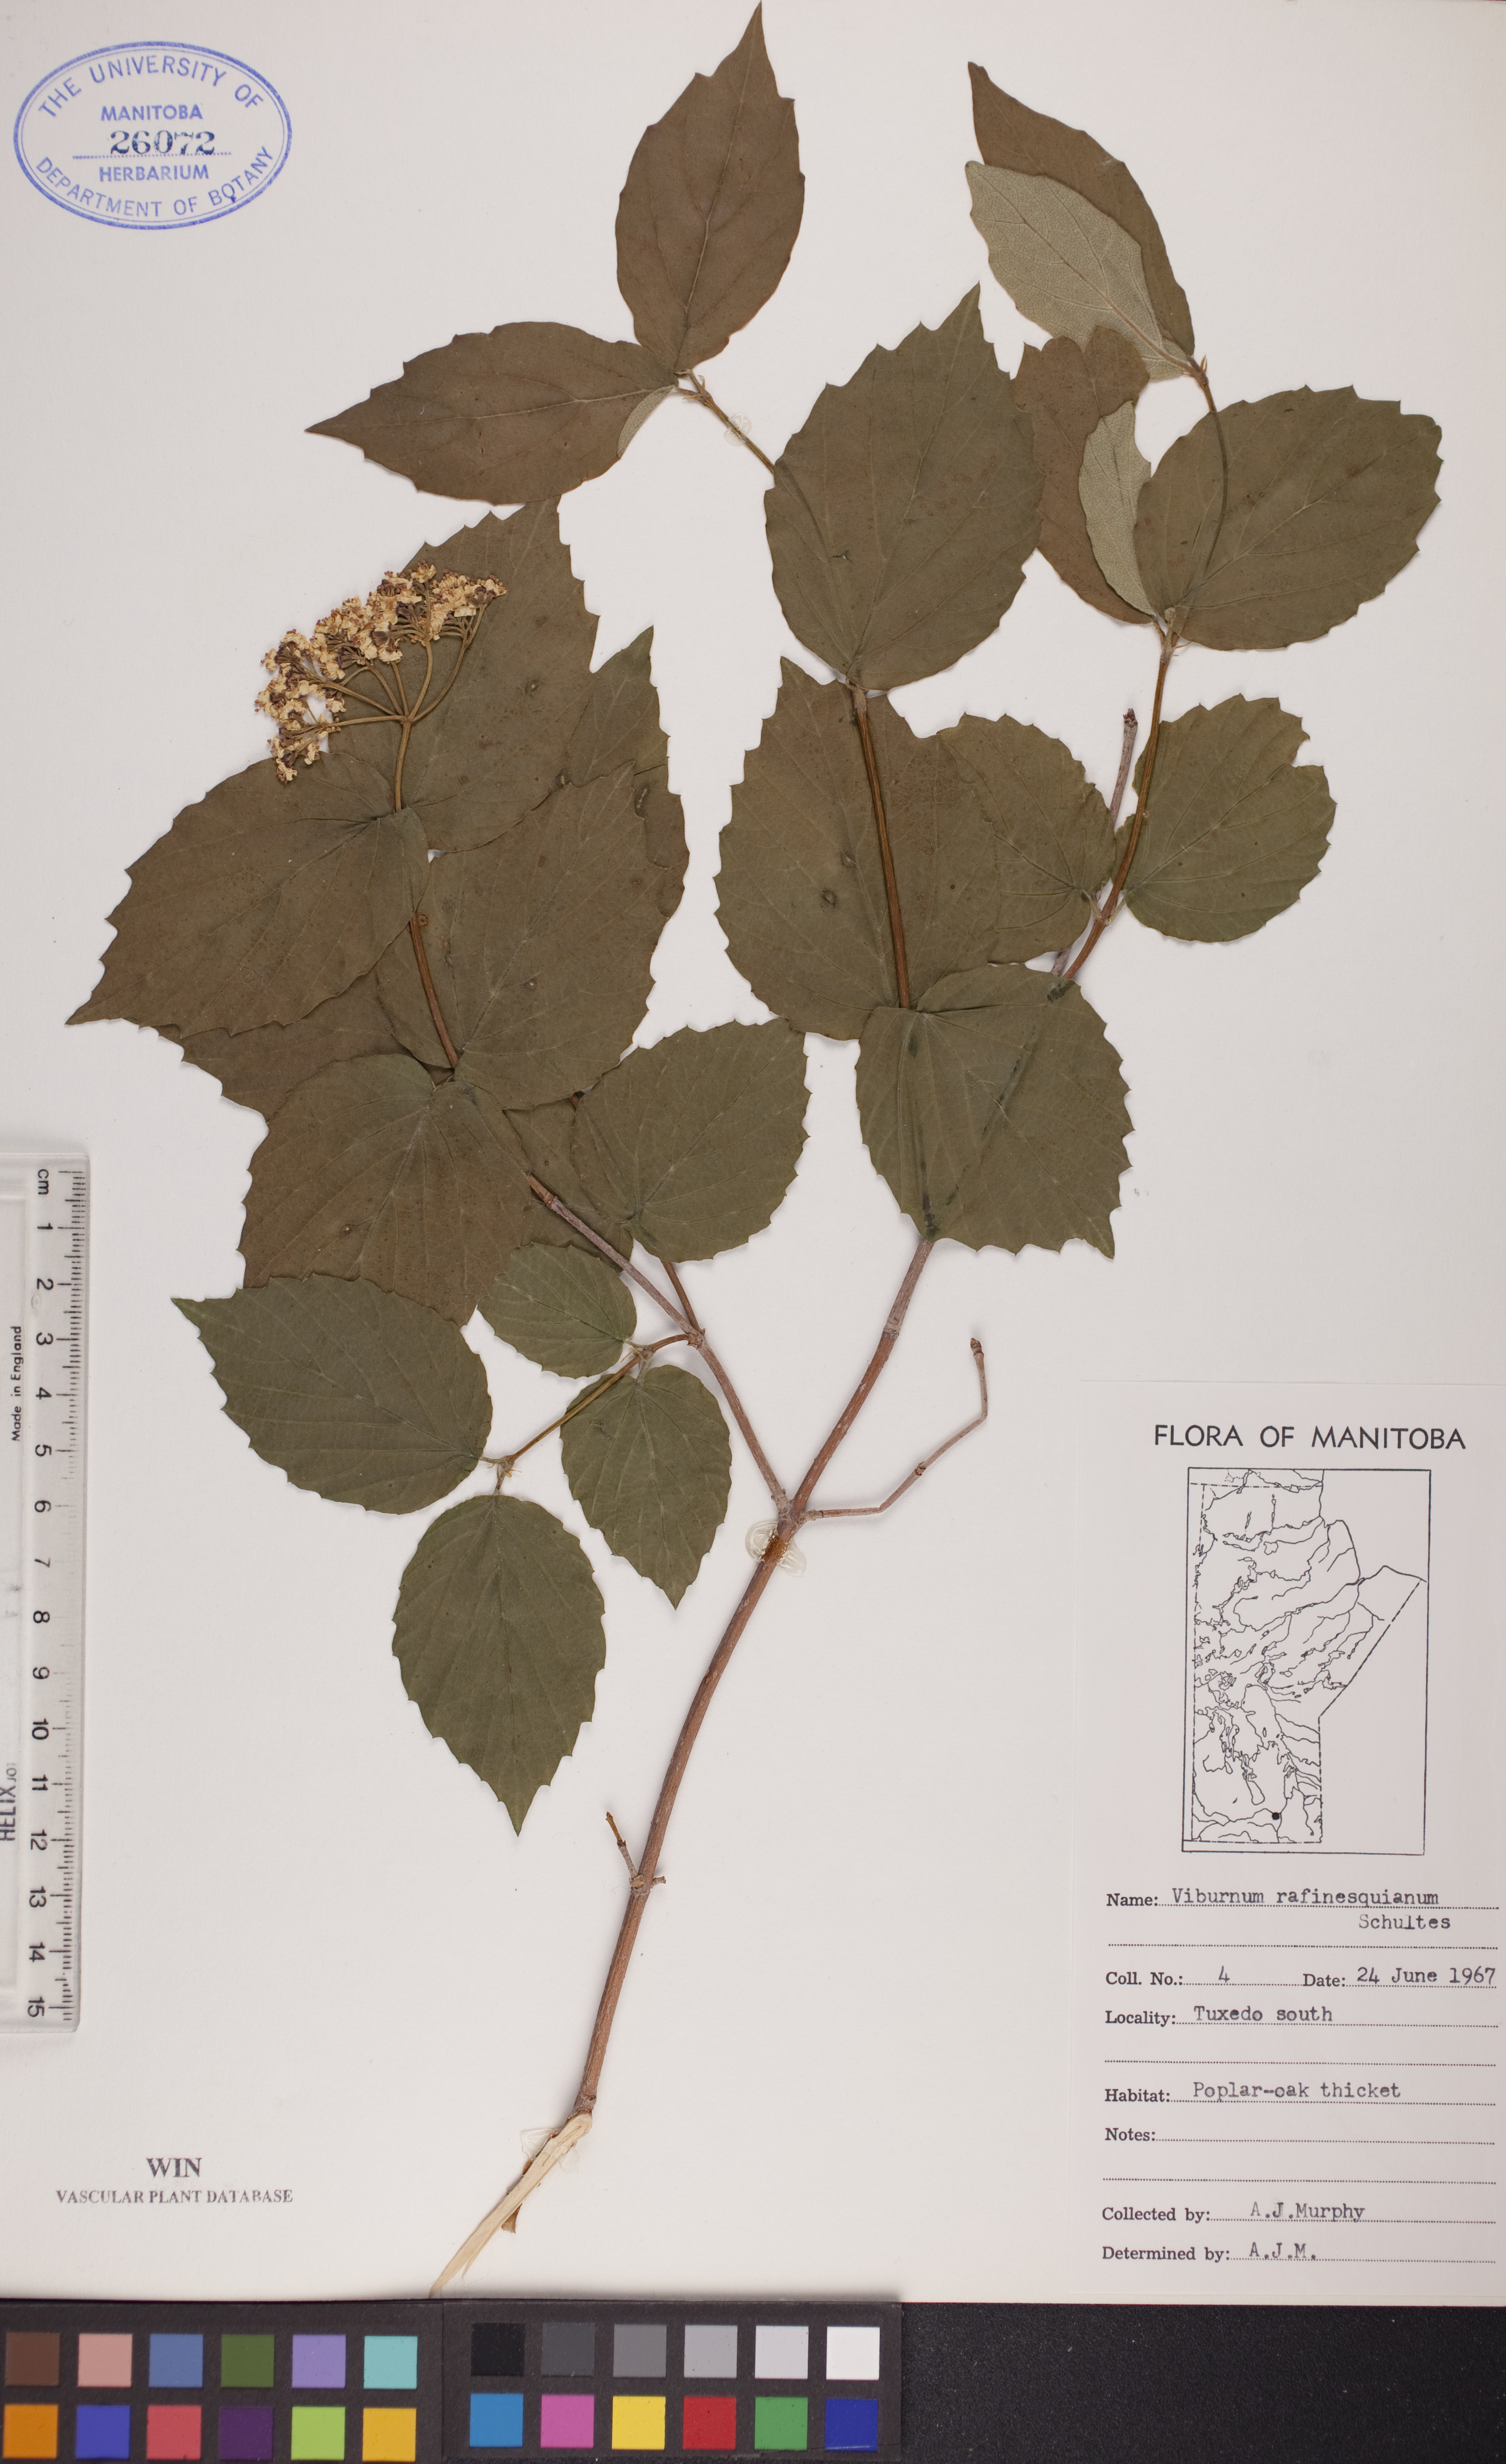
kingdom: Plantae
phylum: Tracheophyta
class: Magnoliopsida
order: Dipsacales
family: Viburnaceae
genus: Viburnum
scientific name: Viburnum rafinesquianum
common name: Downy arrow-wood
